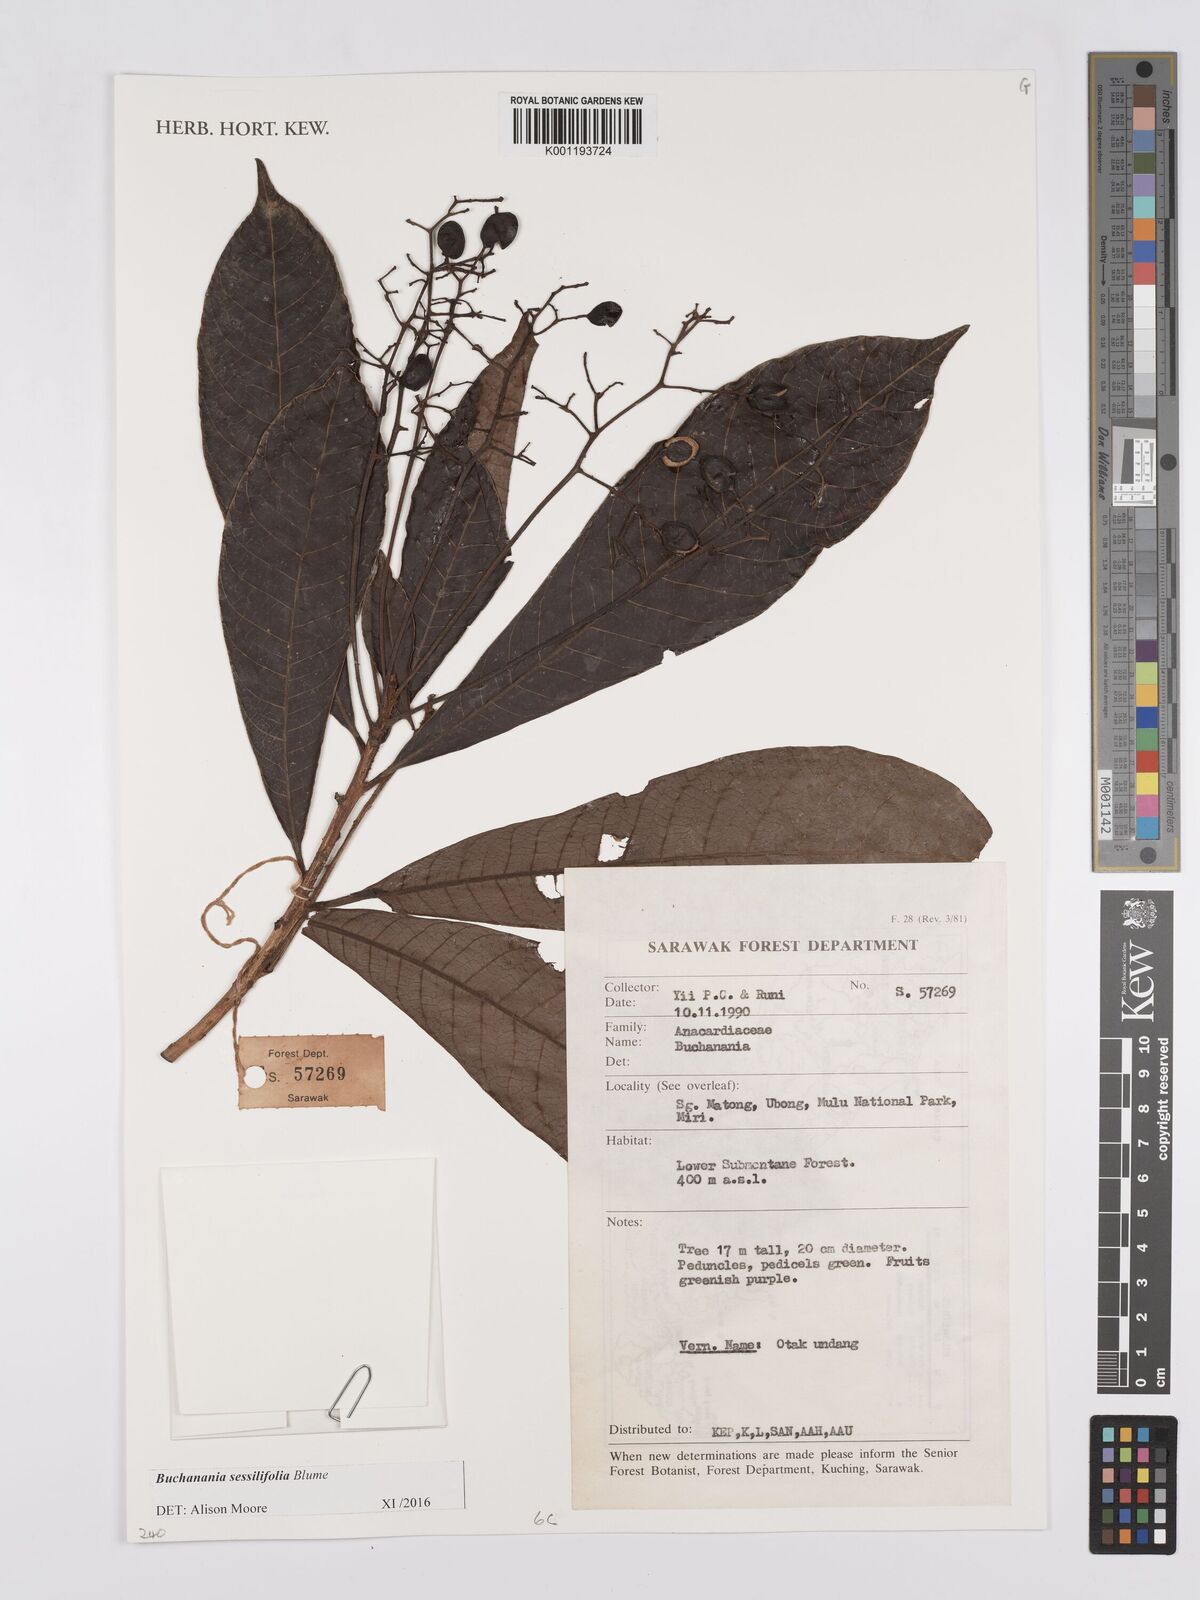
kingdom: Plantae
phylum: Tracheophyta
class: Magnoliopsida
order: Sapindales
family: Anacardiaceae
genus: Buchanania
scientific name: Buchanania sessifolia
